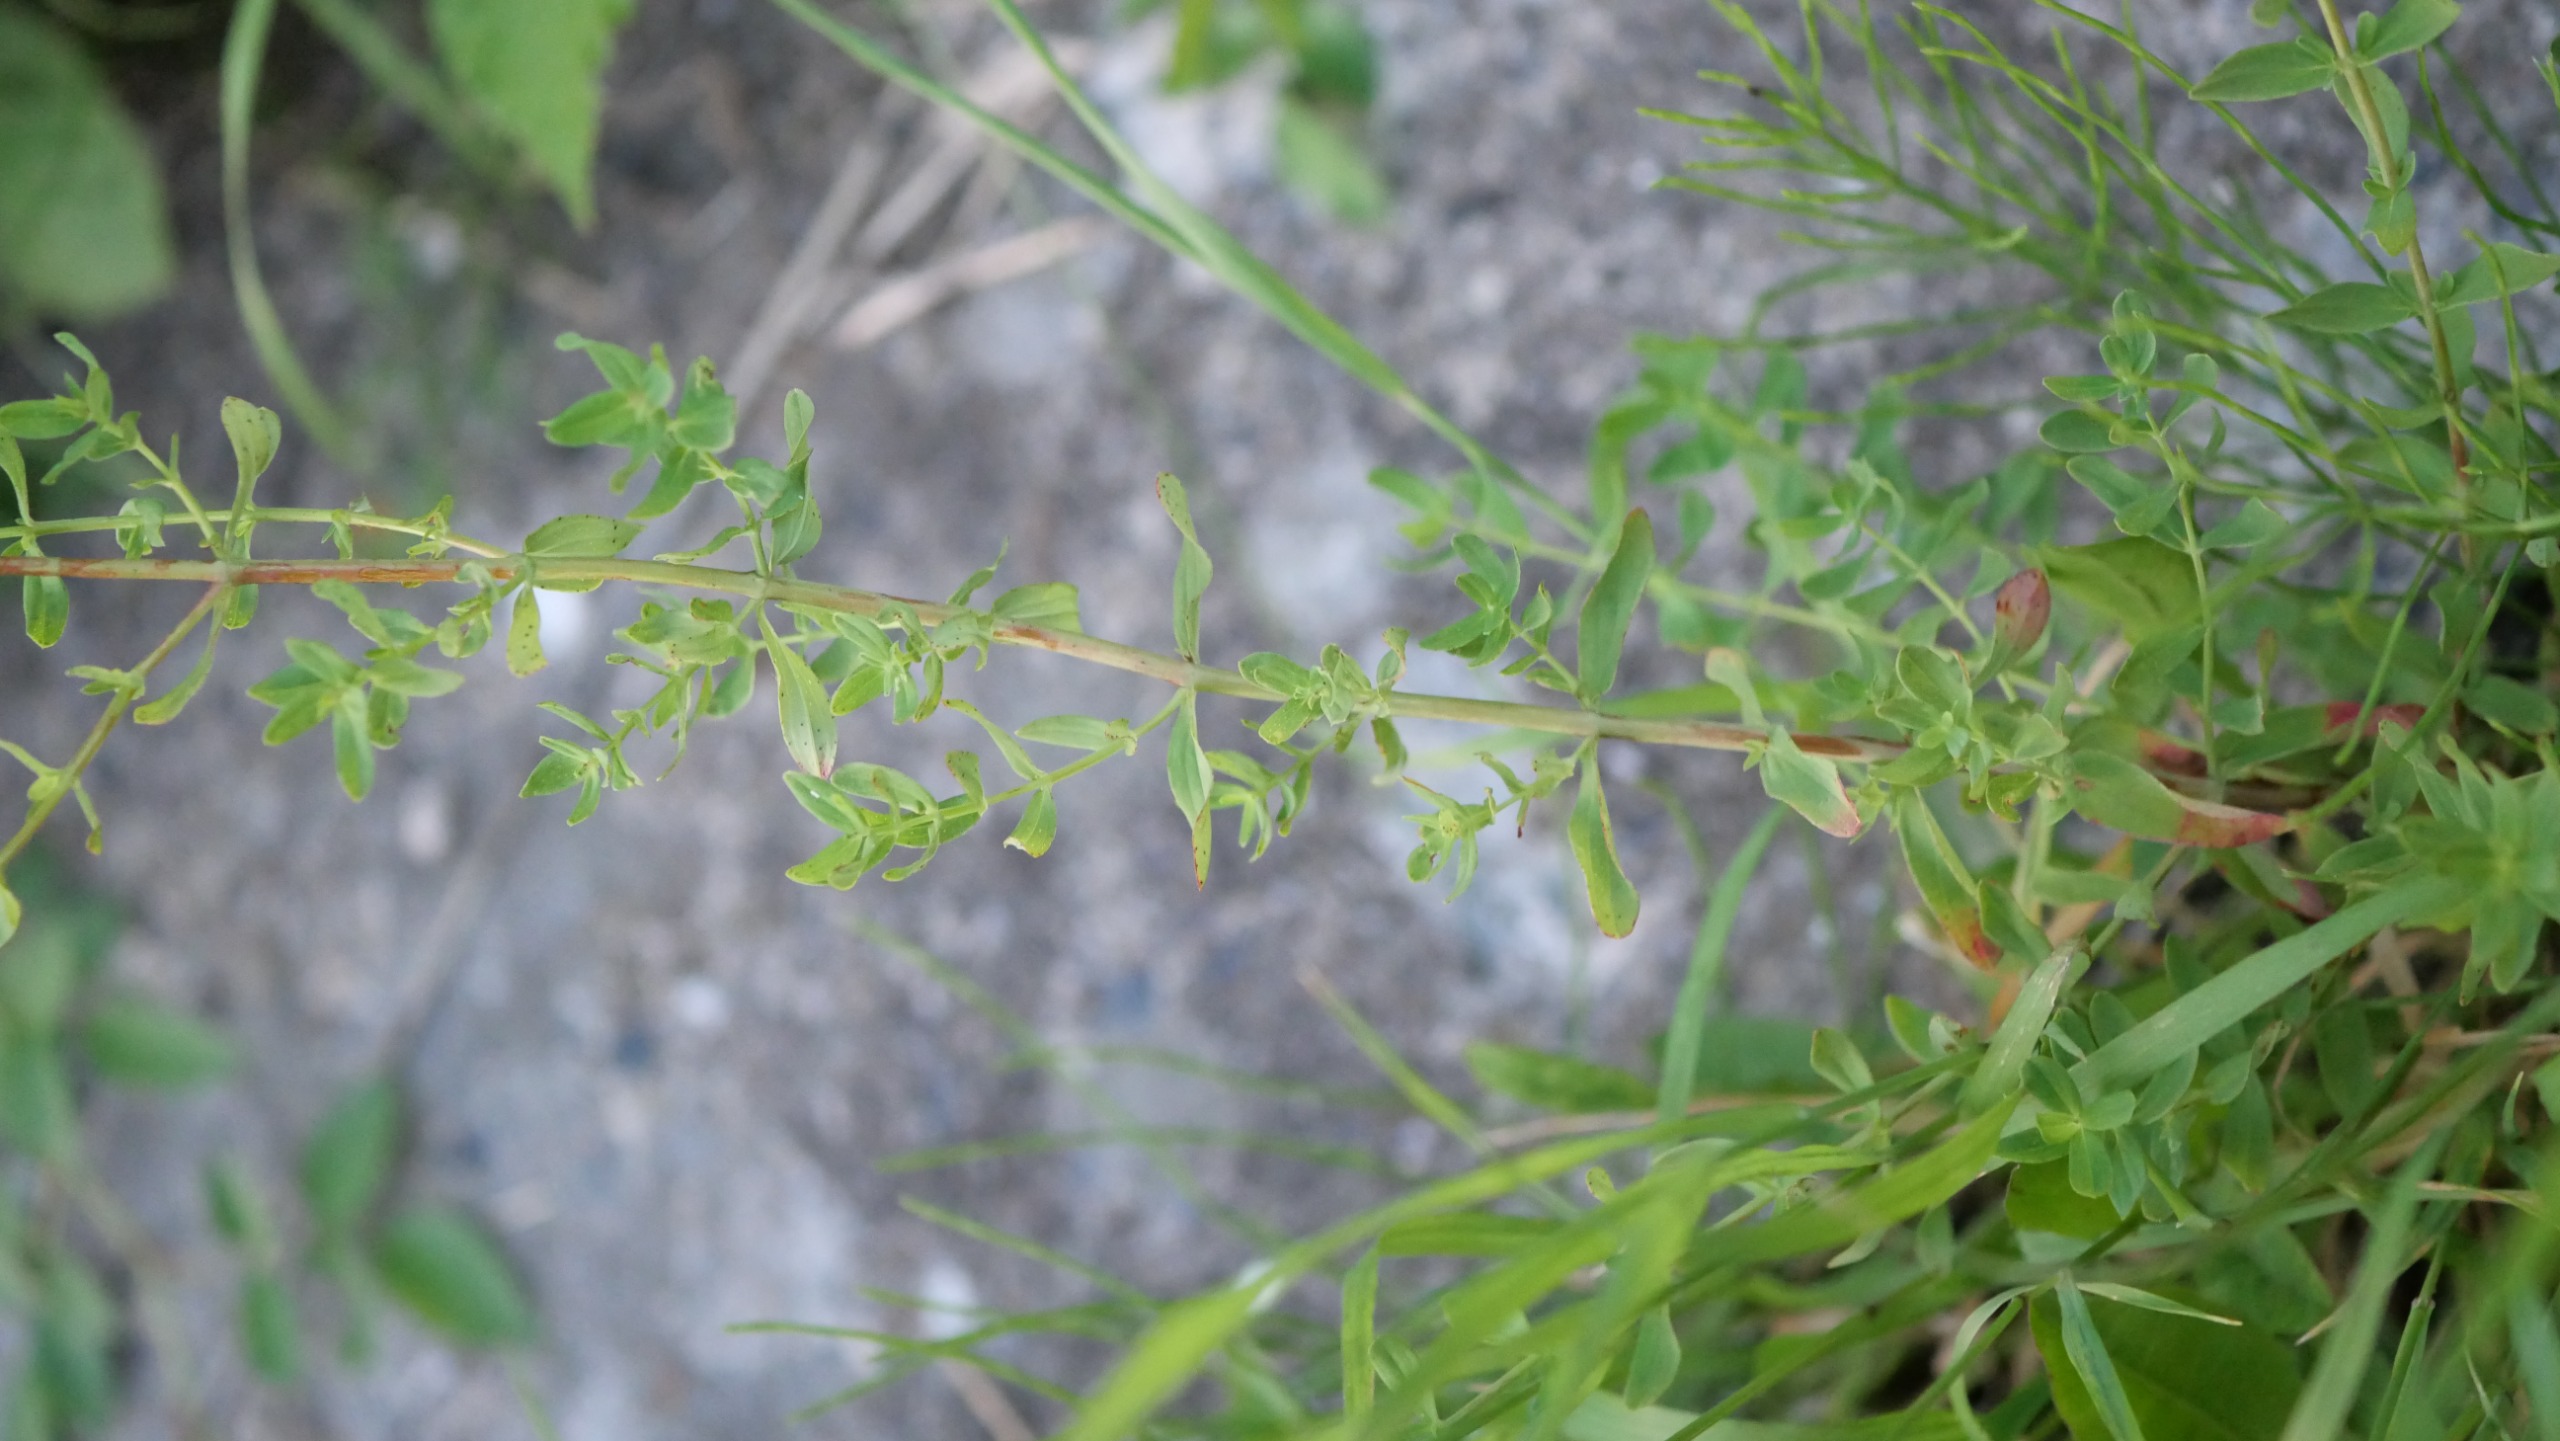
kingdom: Plantae
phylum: Tracheophyta
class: Magnoliopsida
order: Malpighiales
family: Hypericaceae
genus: Hypericum
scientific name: Hypericum perforatum
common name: Prikbladet perikon
